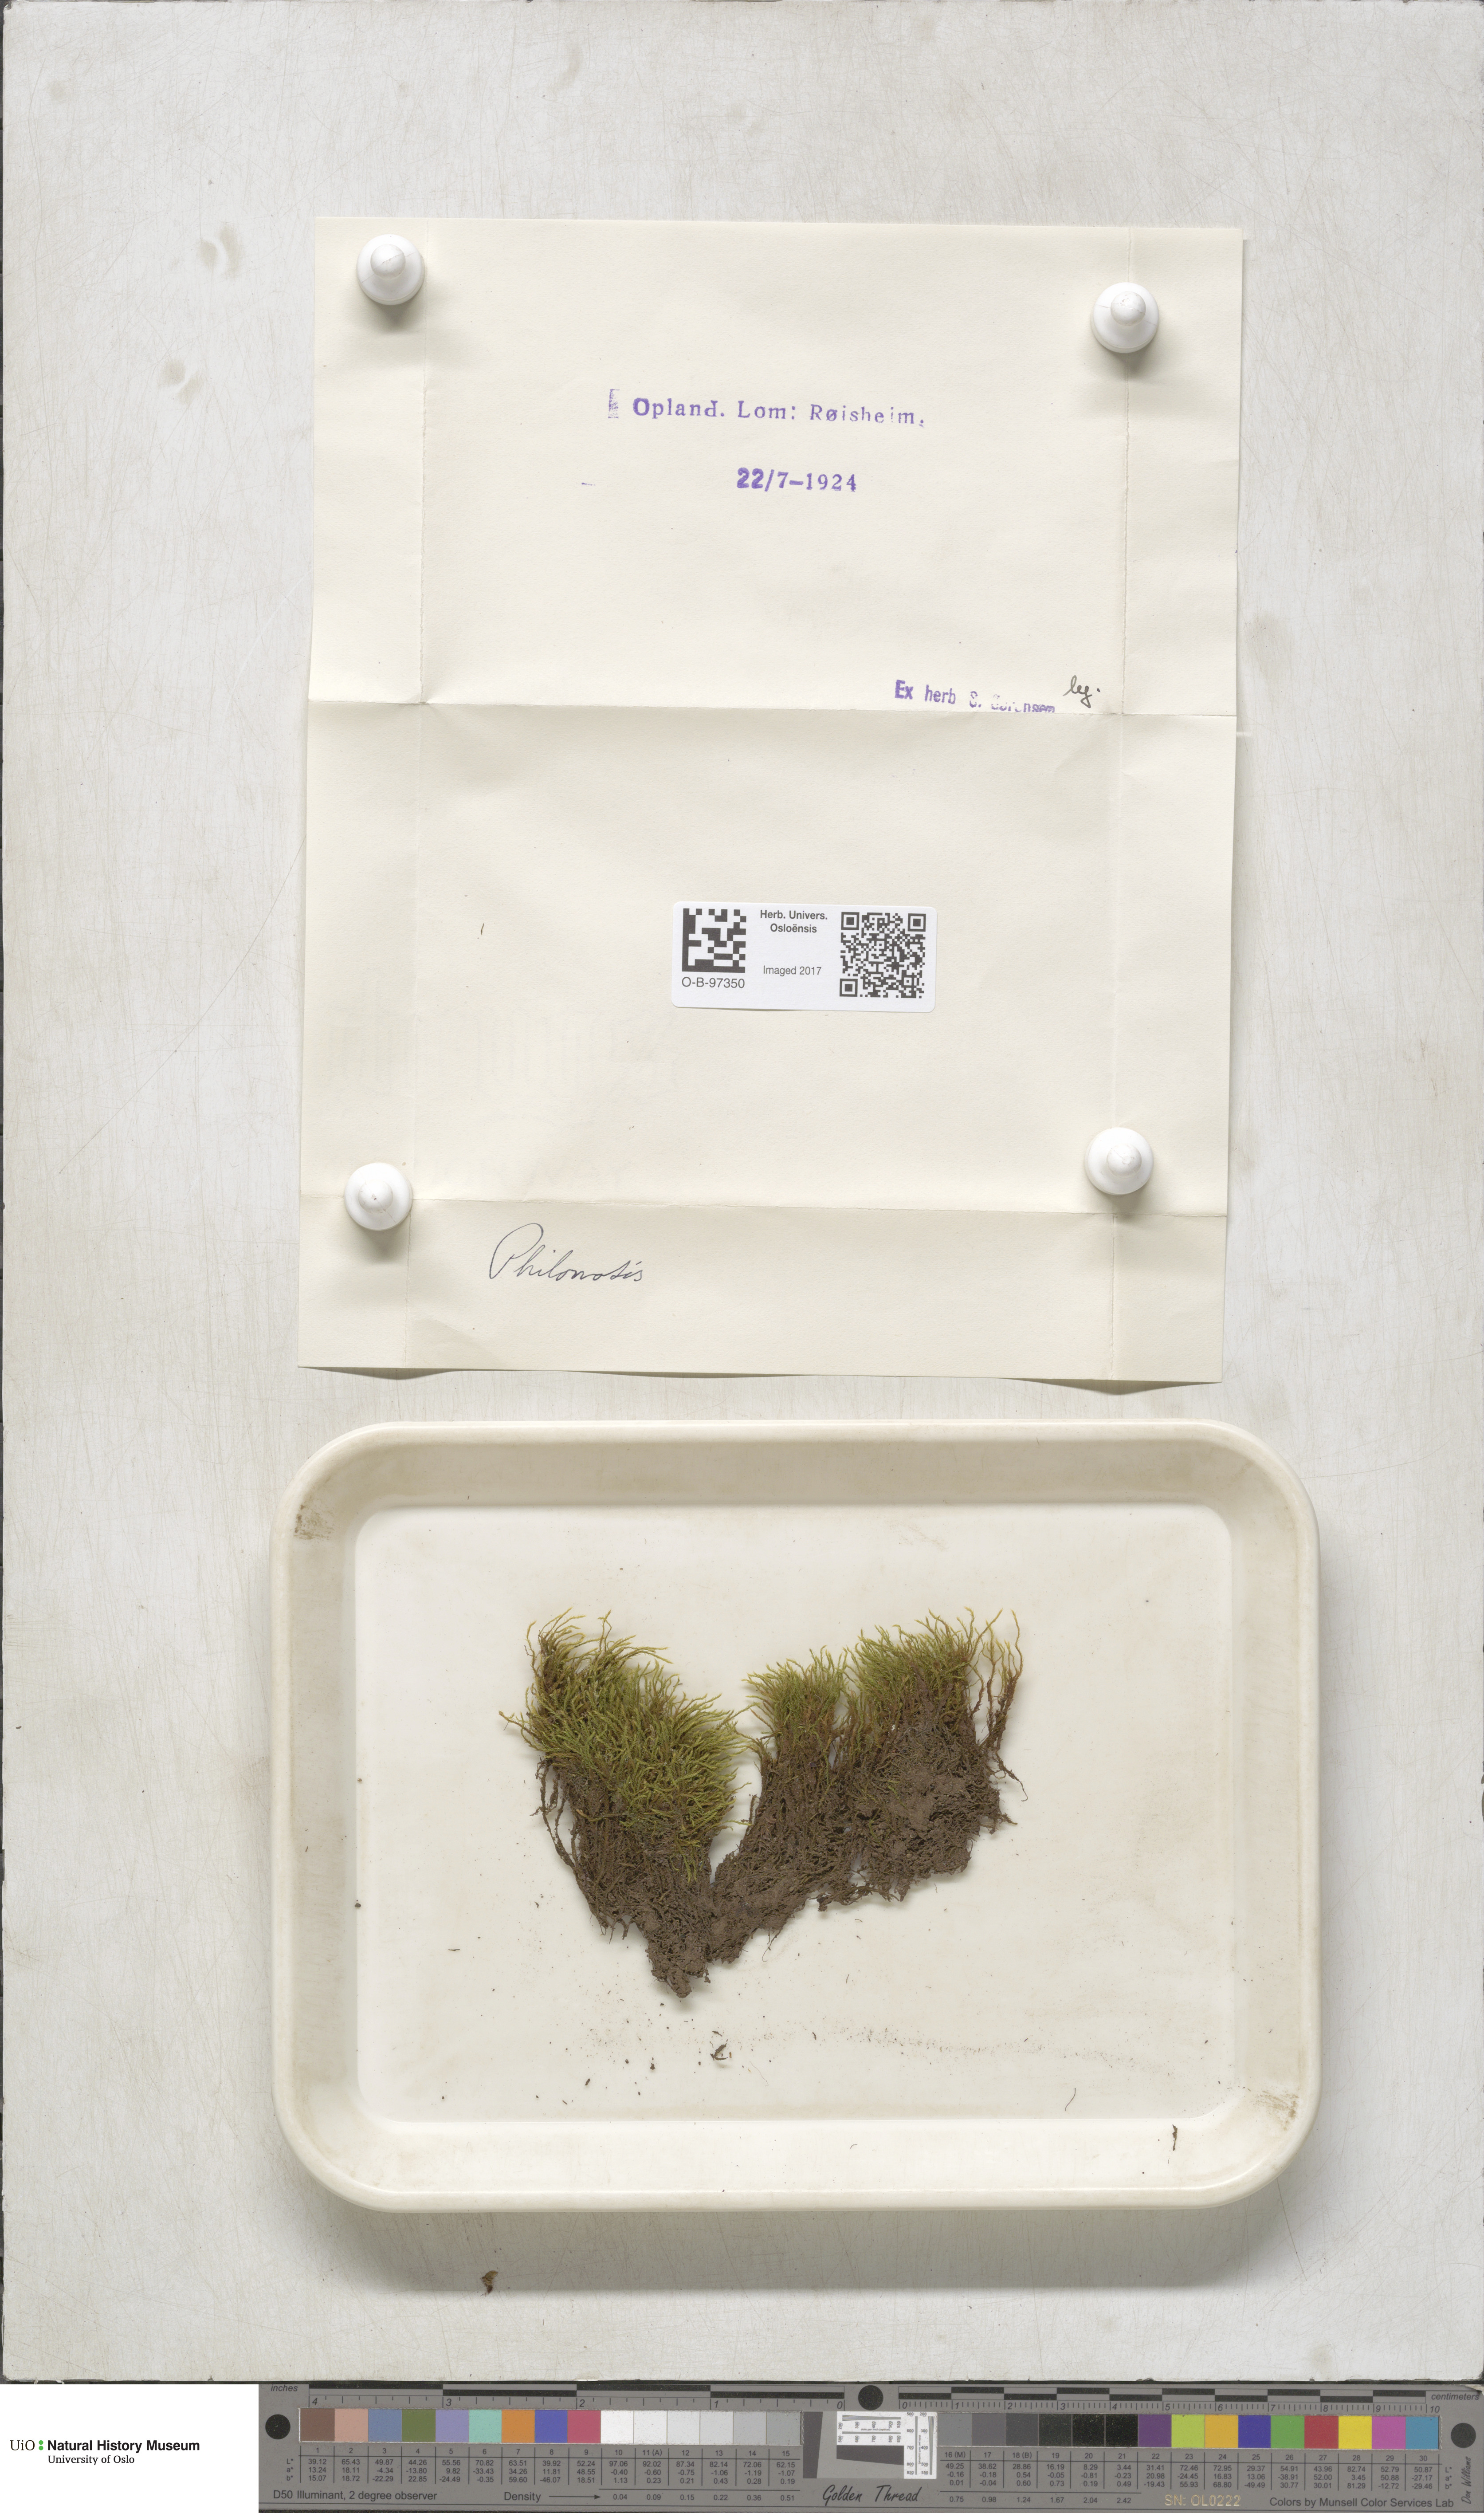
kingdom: Plantae
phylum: Bryophyta
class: Bryopsida
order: Bartramiales
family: Bartramiaceae
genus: Philonotis
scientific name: Philonotis
